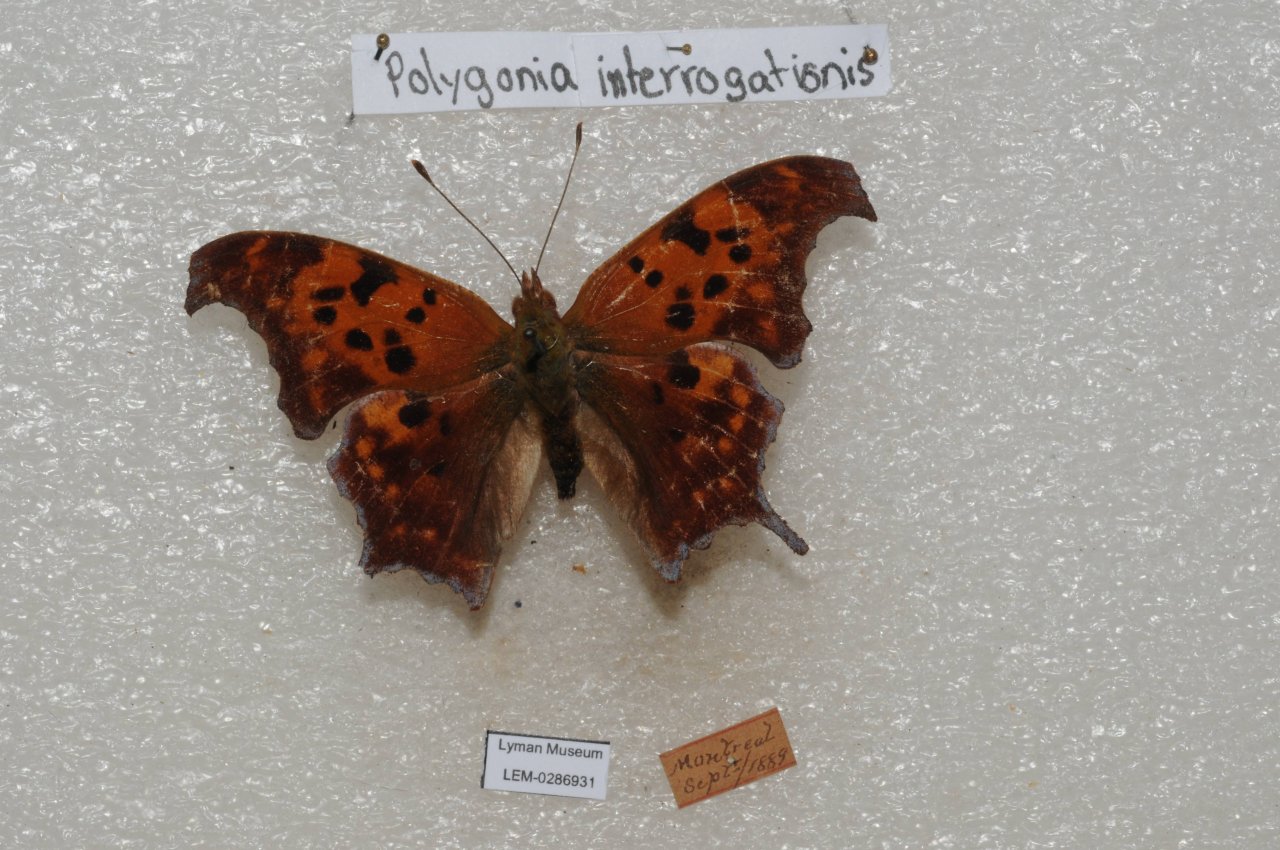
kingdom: Animalia
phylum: Arthropoda
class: Insecta
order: Lepidoptera
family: Nymphalidae
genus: Polygonia
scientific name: Polygonia interrogationis
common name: Question Mark
